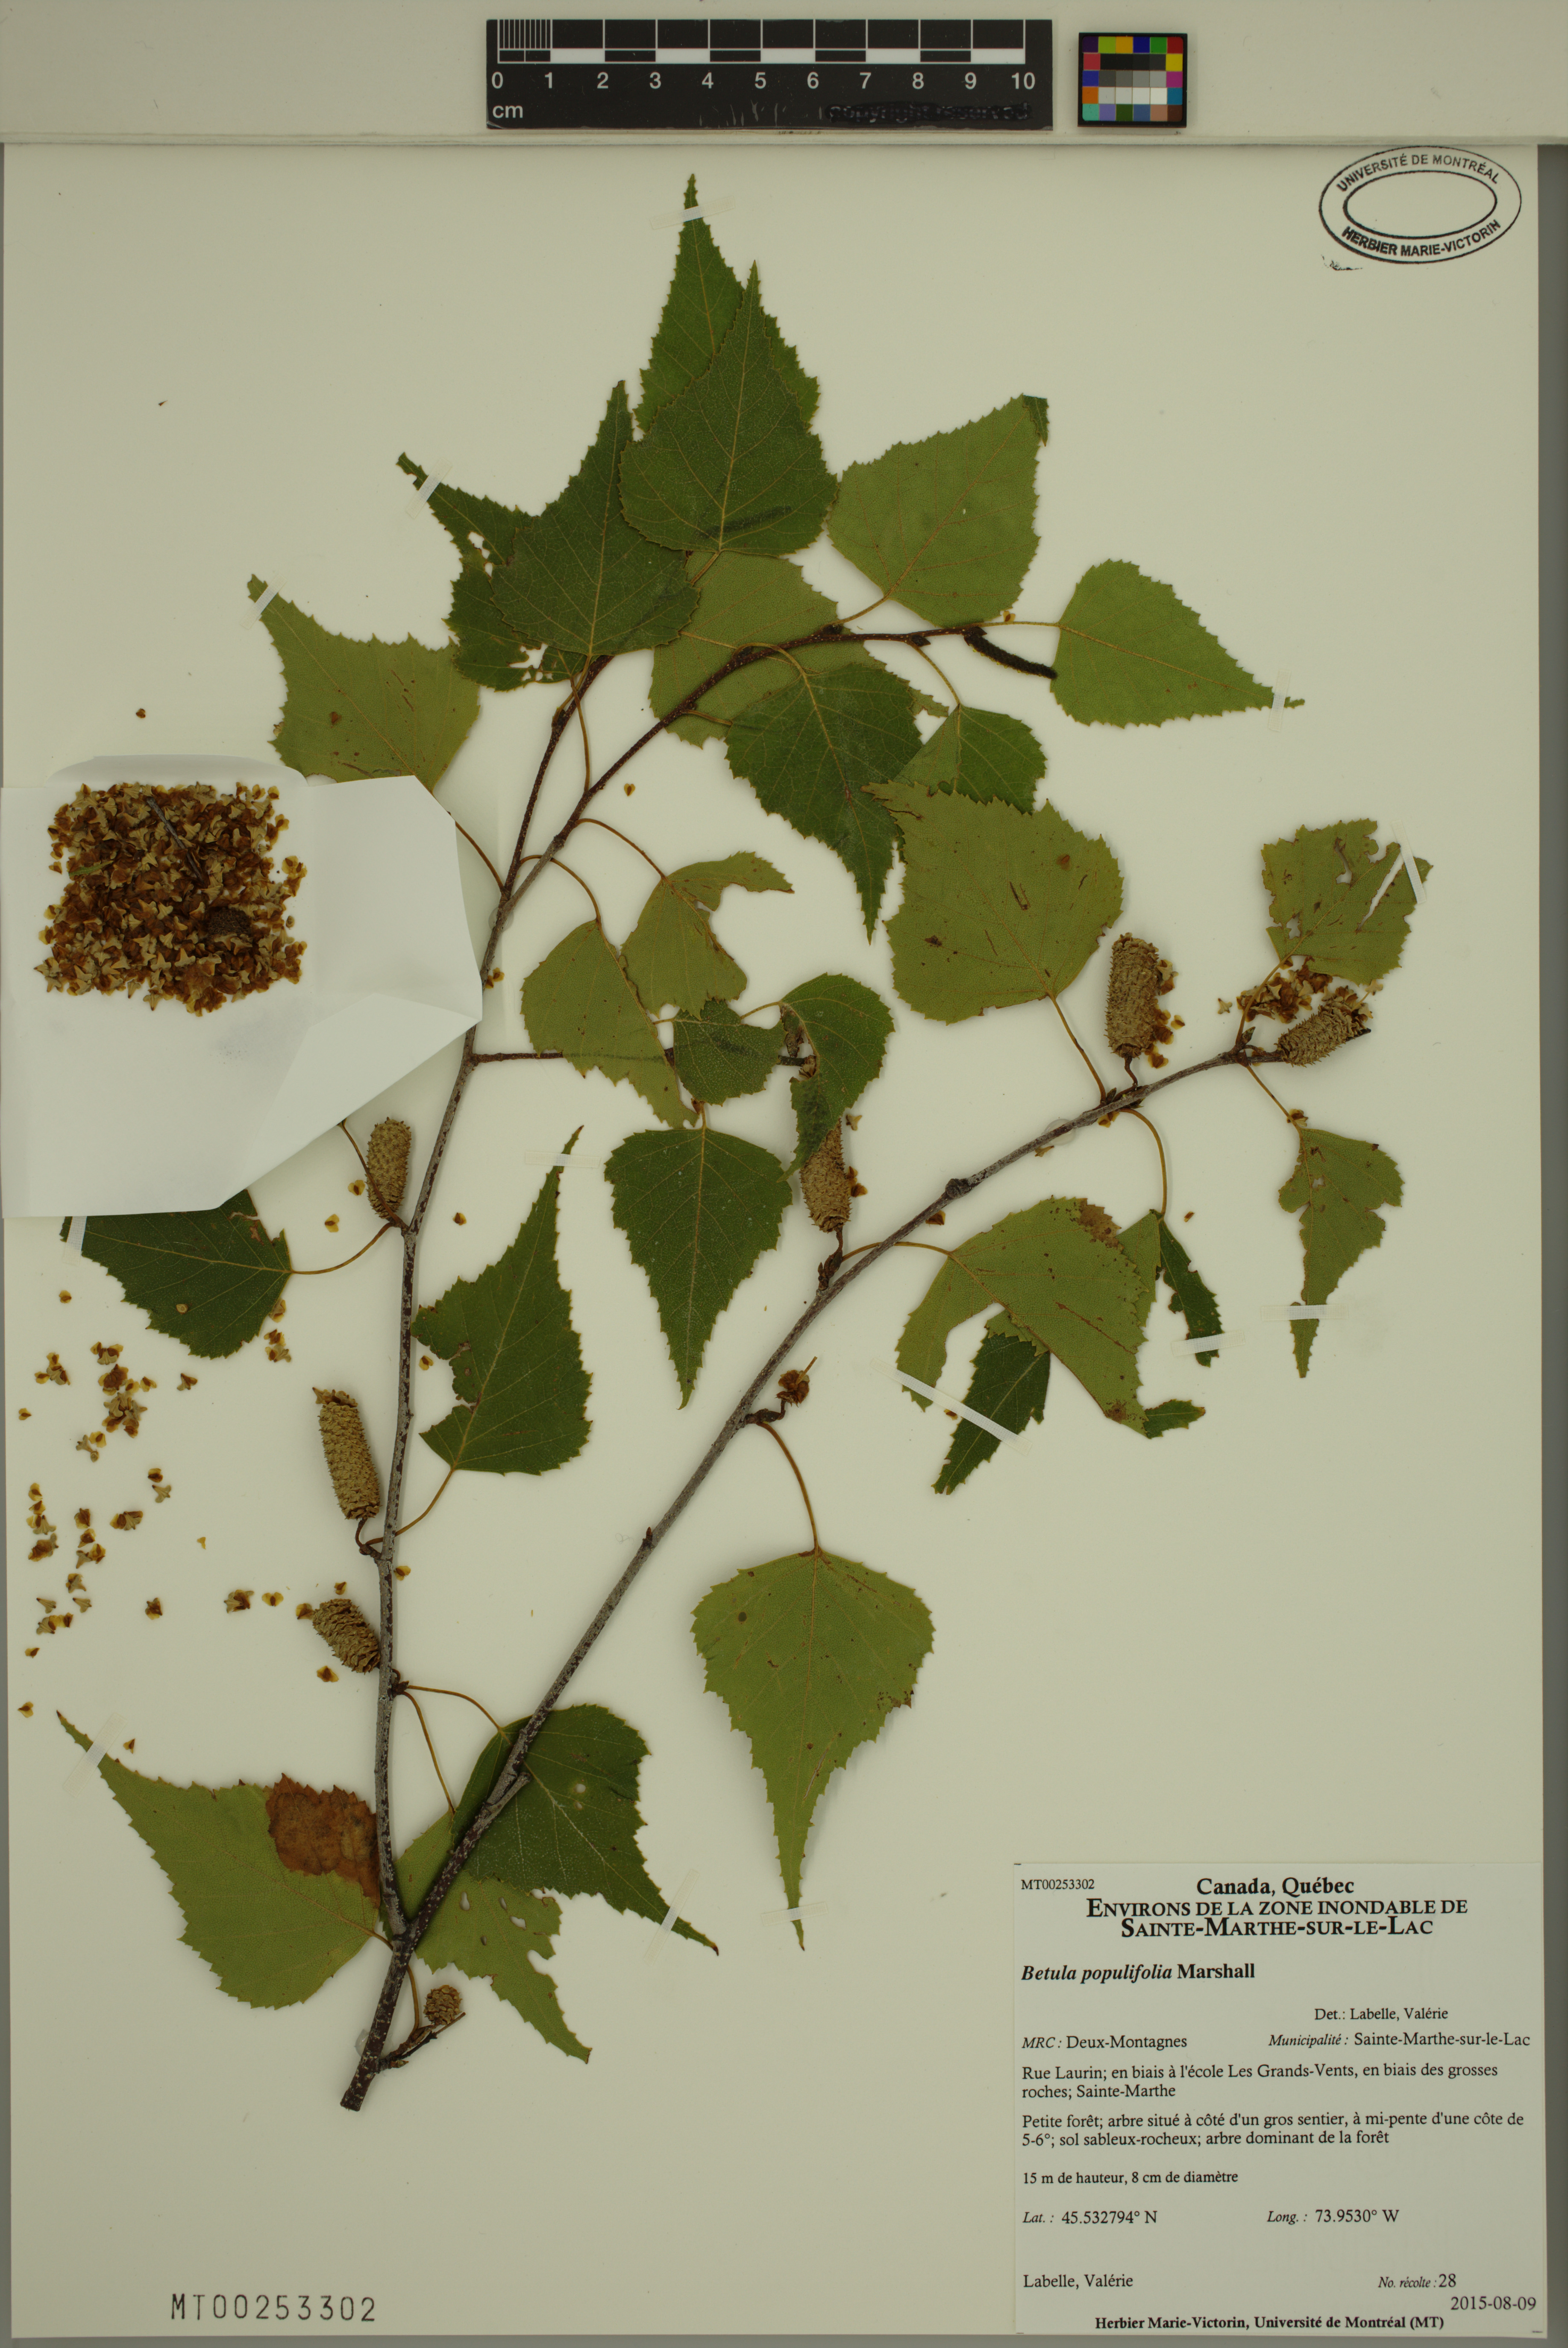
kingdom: Plantae
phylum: Tracheophyta
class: Magnoliopsida
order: Fagales
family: Betulaceae
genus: Betula
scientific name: Betula populifolia
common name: Fire birch
